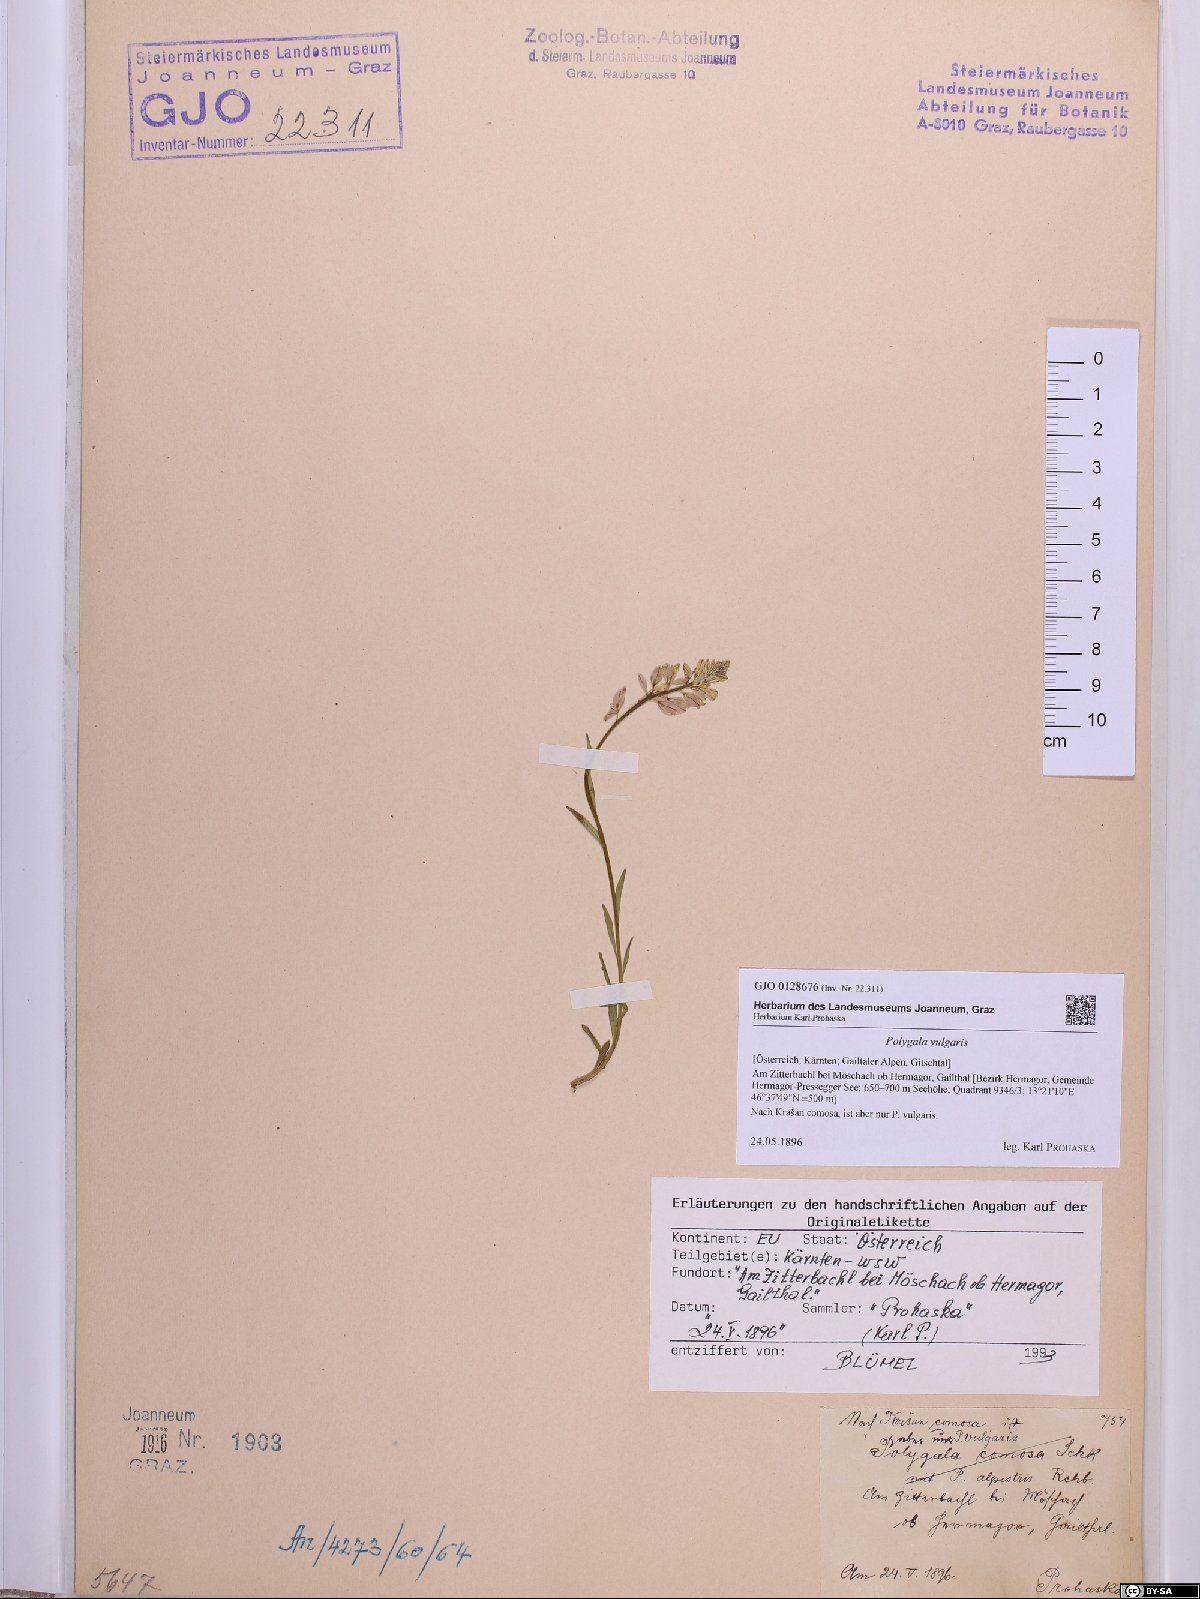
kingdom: Plantae
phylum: Tracheophyta
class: Magnoliopsida
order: Fabales
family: Polygalaceae
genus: Polygala
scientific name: Polygala vulgaris
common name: Common milkwort
